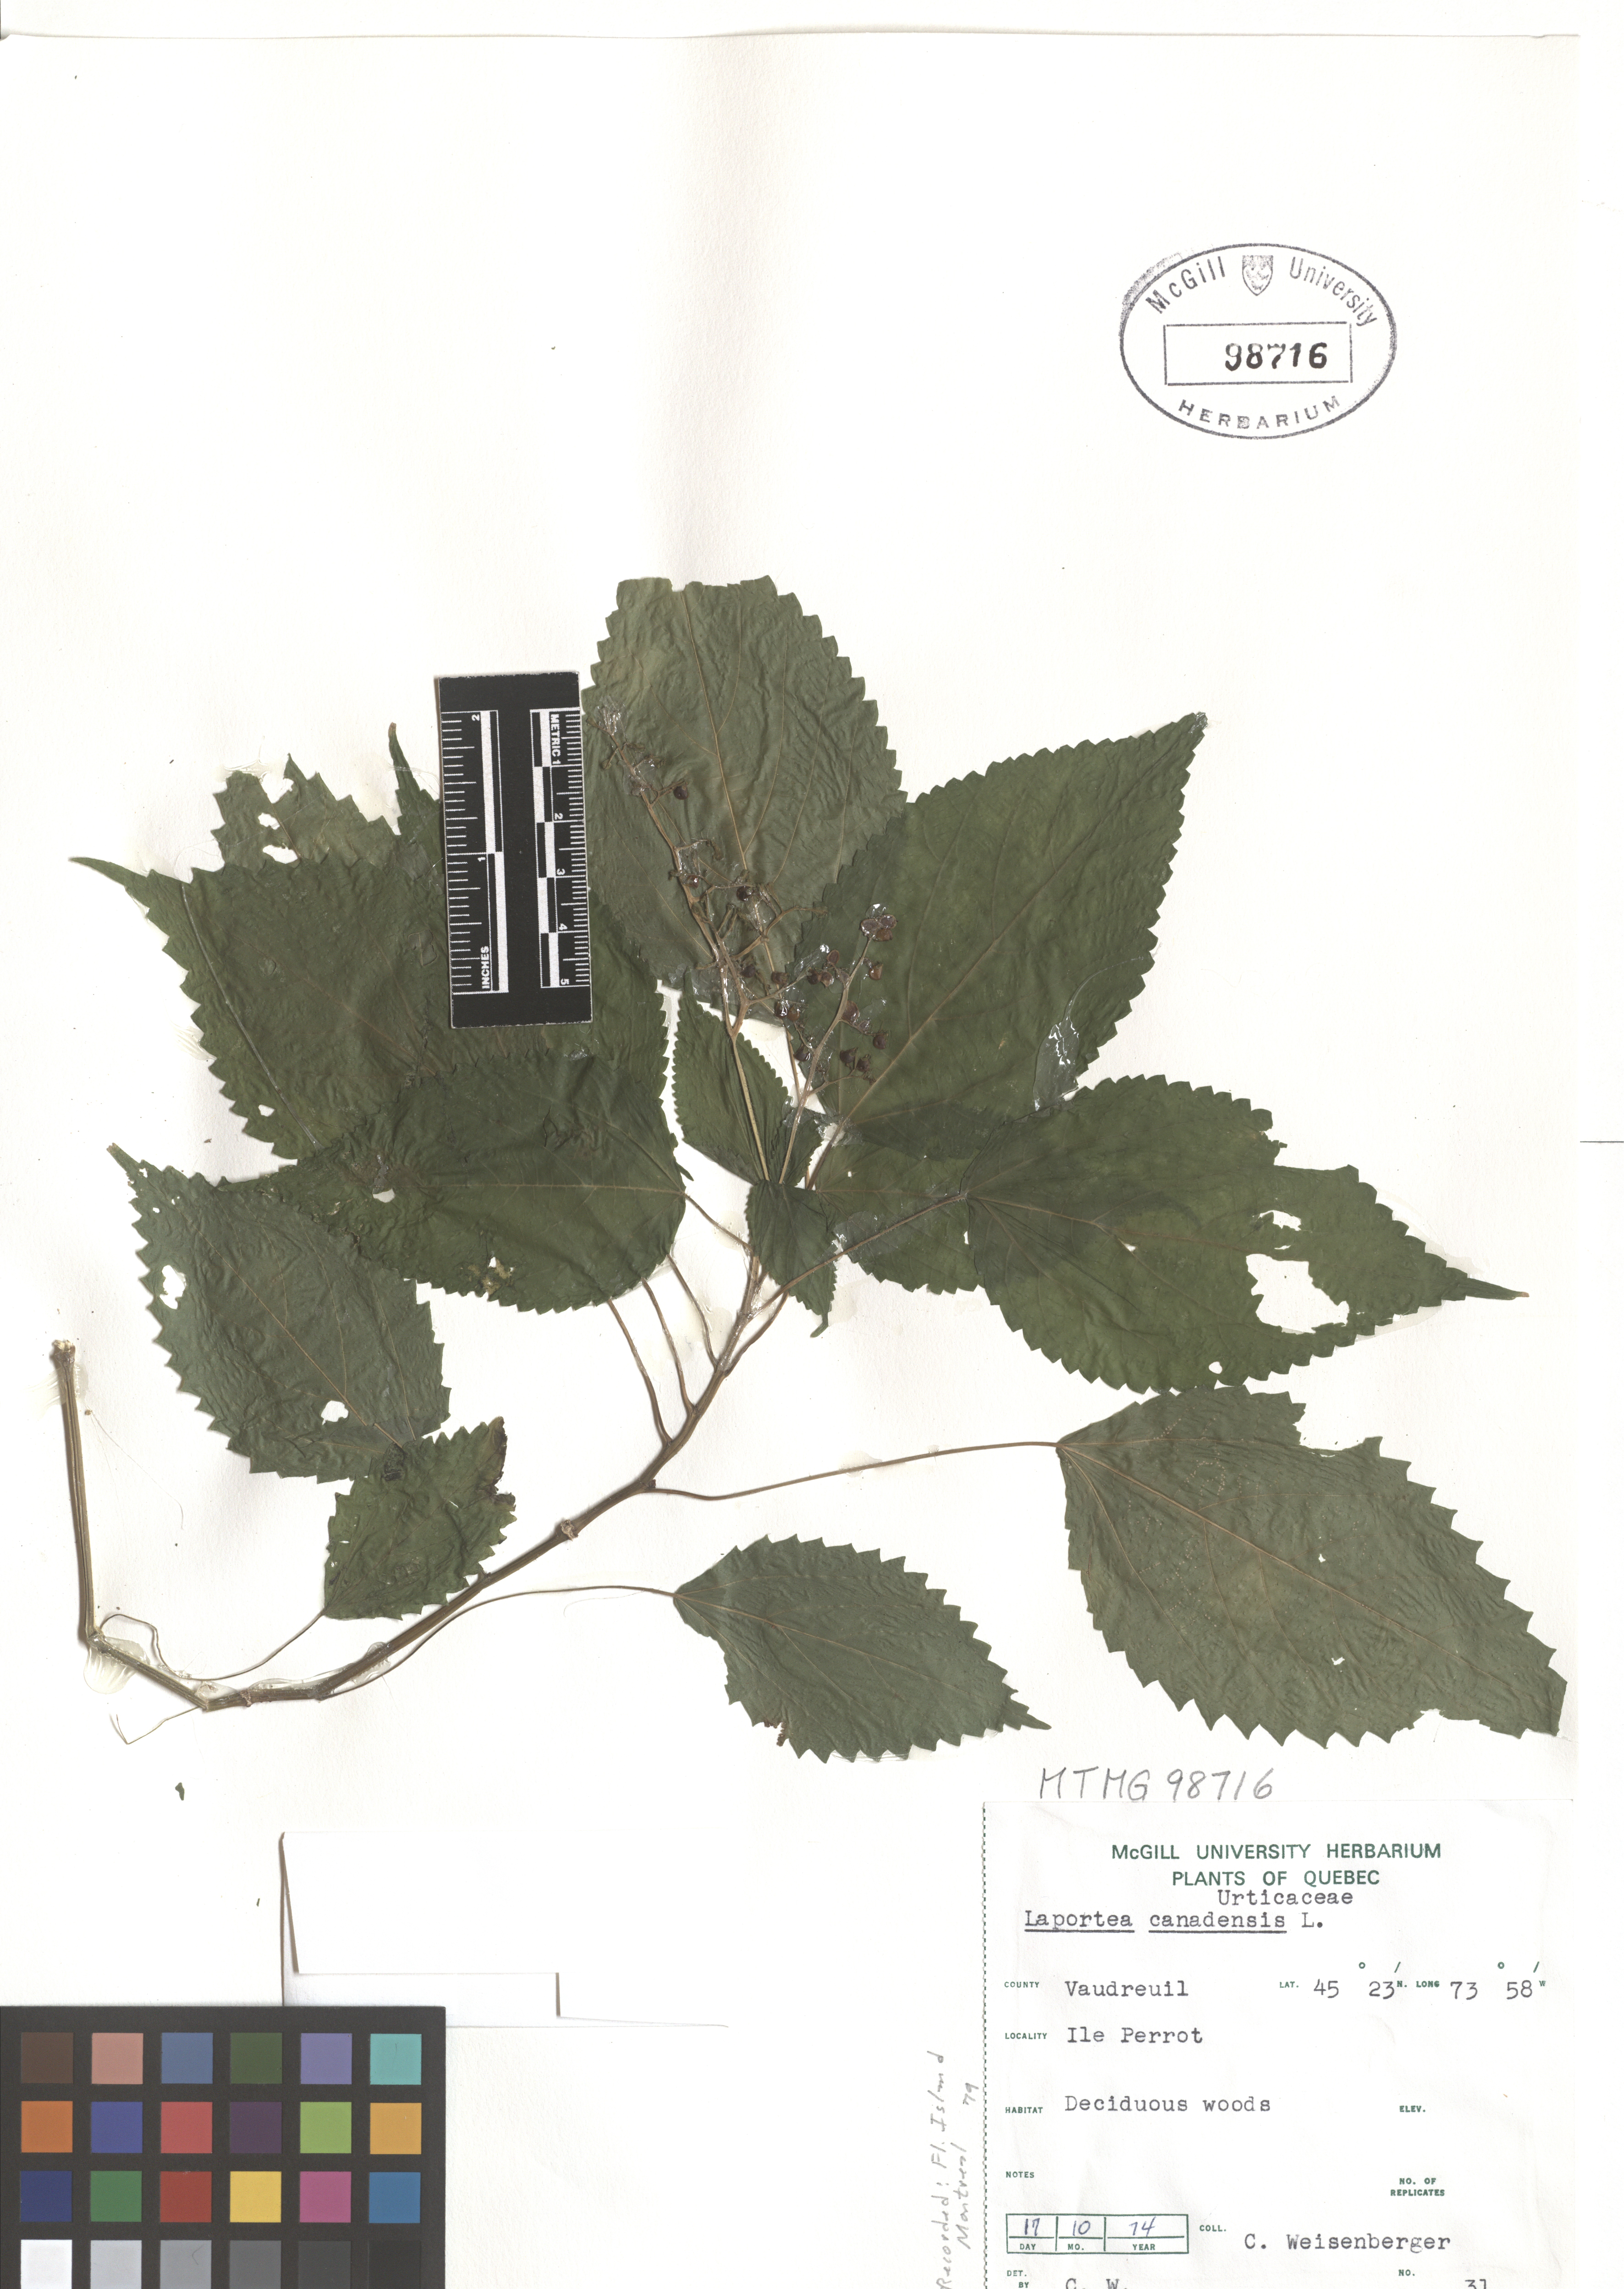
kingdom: Plantae
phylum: Tracheophyta
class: Magnoliopsida
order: Rosales
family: Urticaceae
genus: Laportea
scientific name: Laportea canadensis
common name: Canada nettle
